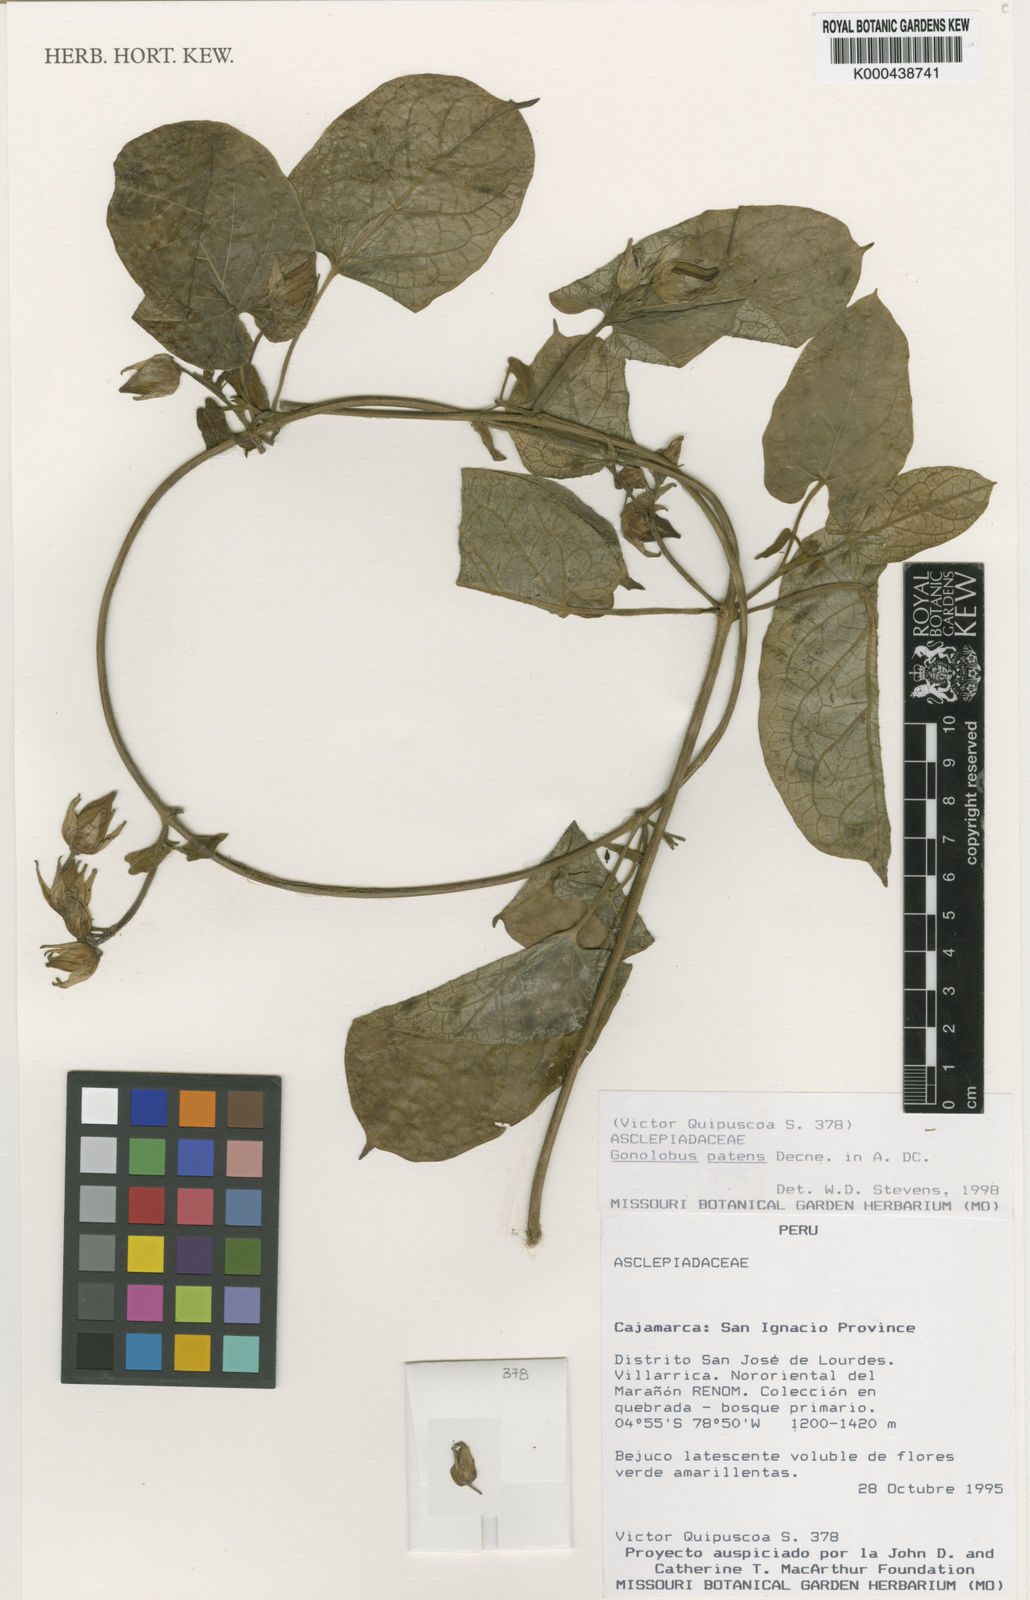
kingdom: Plantae
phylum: Tracheophyta
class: Magnoliopsida
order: Gentianales
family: Apocynaceae
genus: Gonolobus
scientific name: Gonolobus
